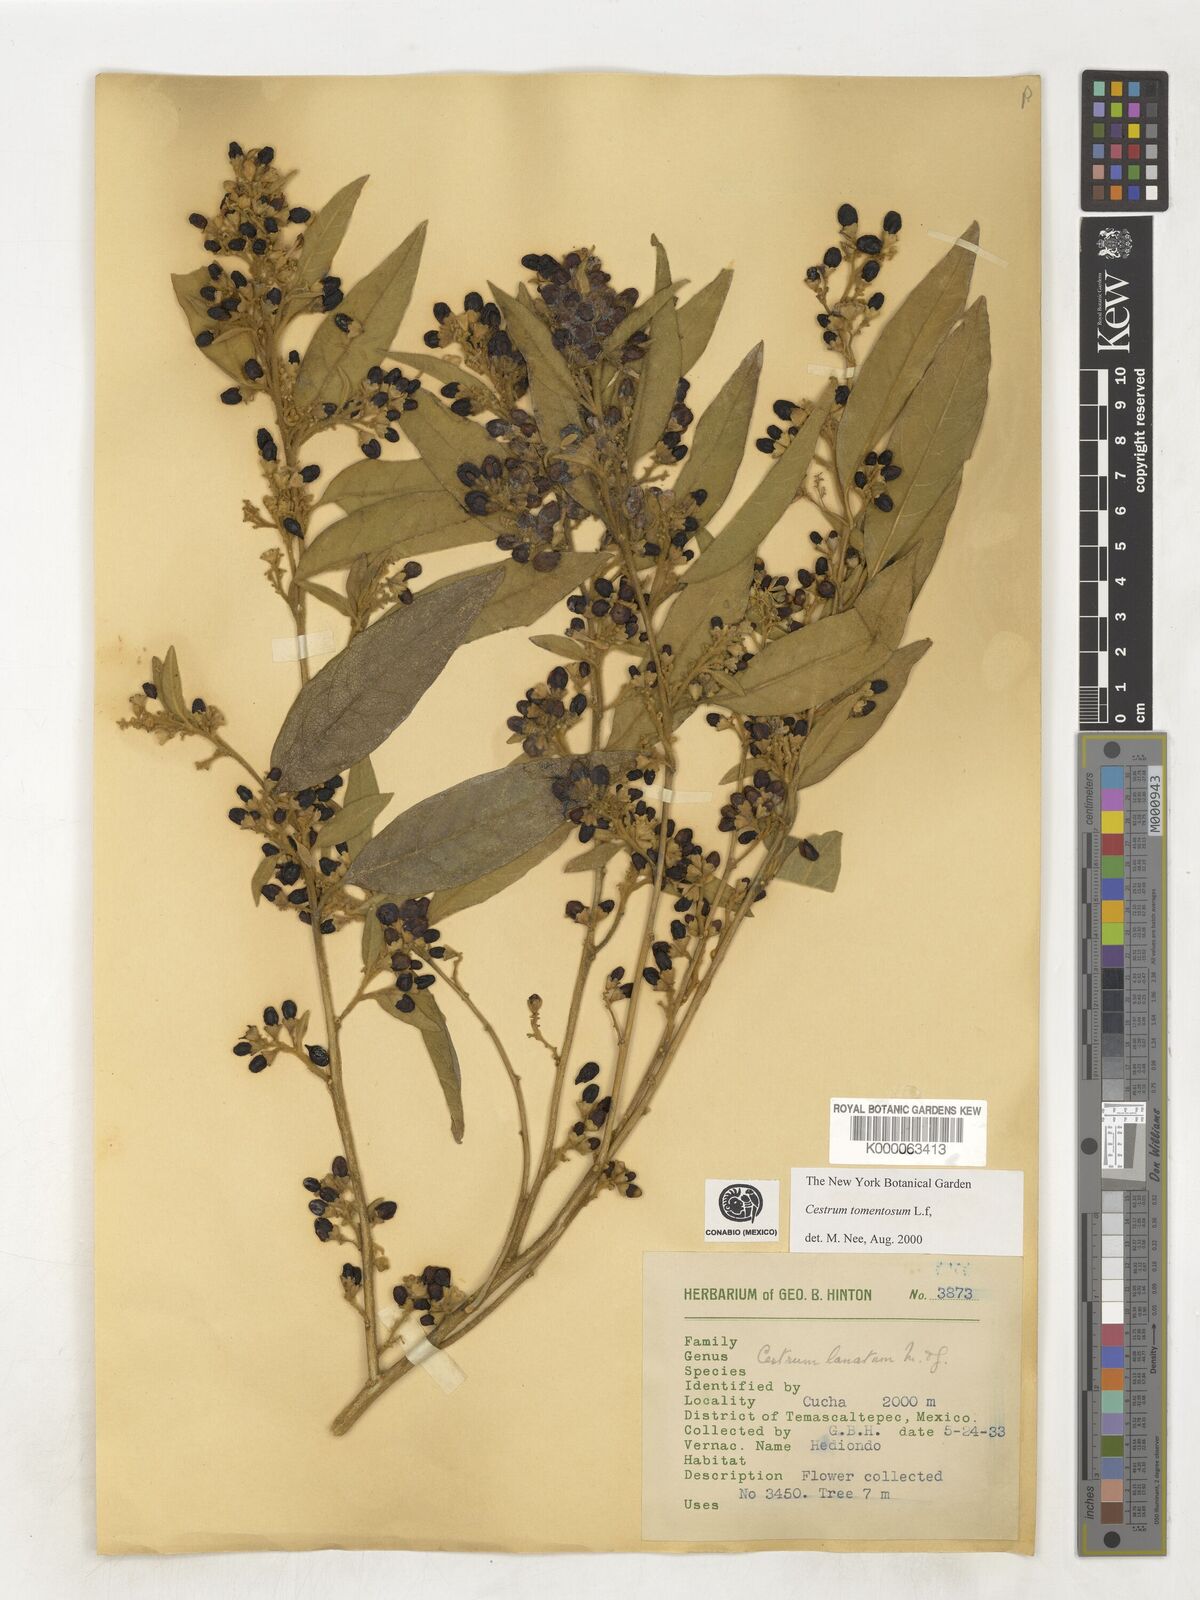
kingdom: Plantae
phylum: Tracheophyta
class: Magnoliopsida
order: Solanales
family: Solanaceae
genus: Cestrum
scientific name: Cestrum tomentosum
